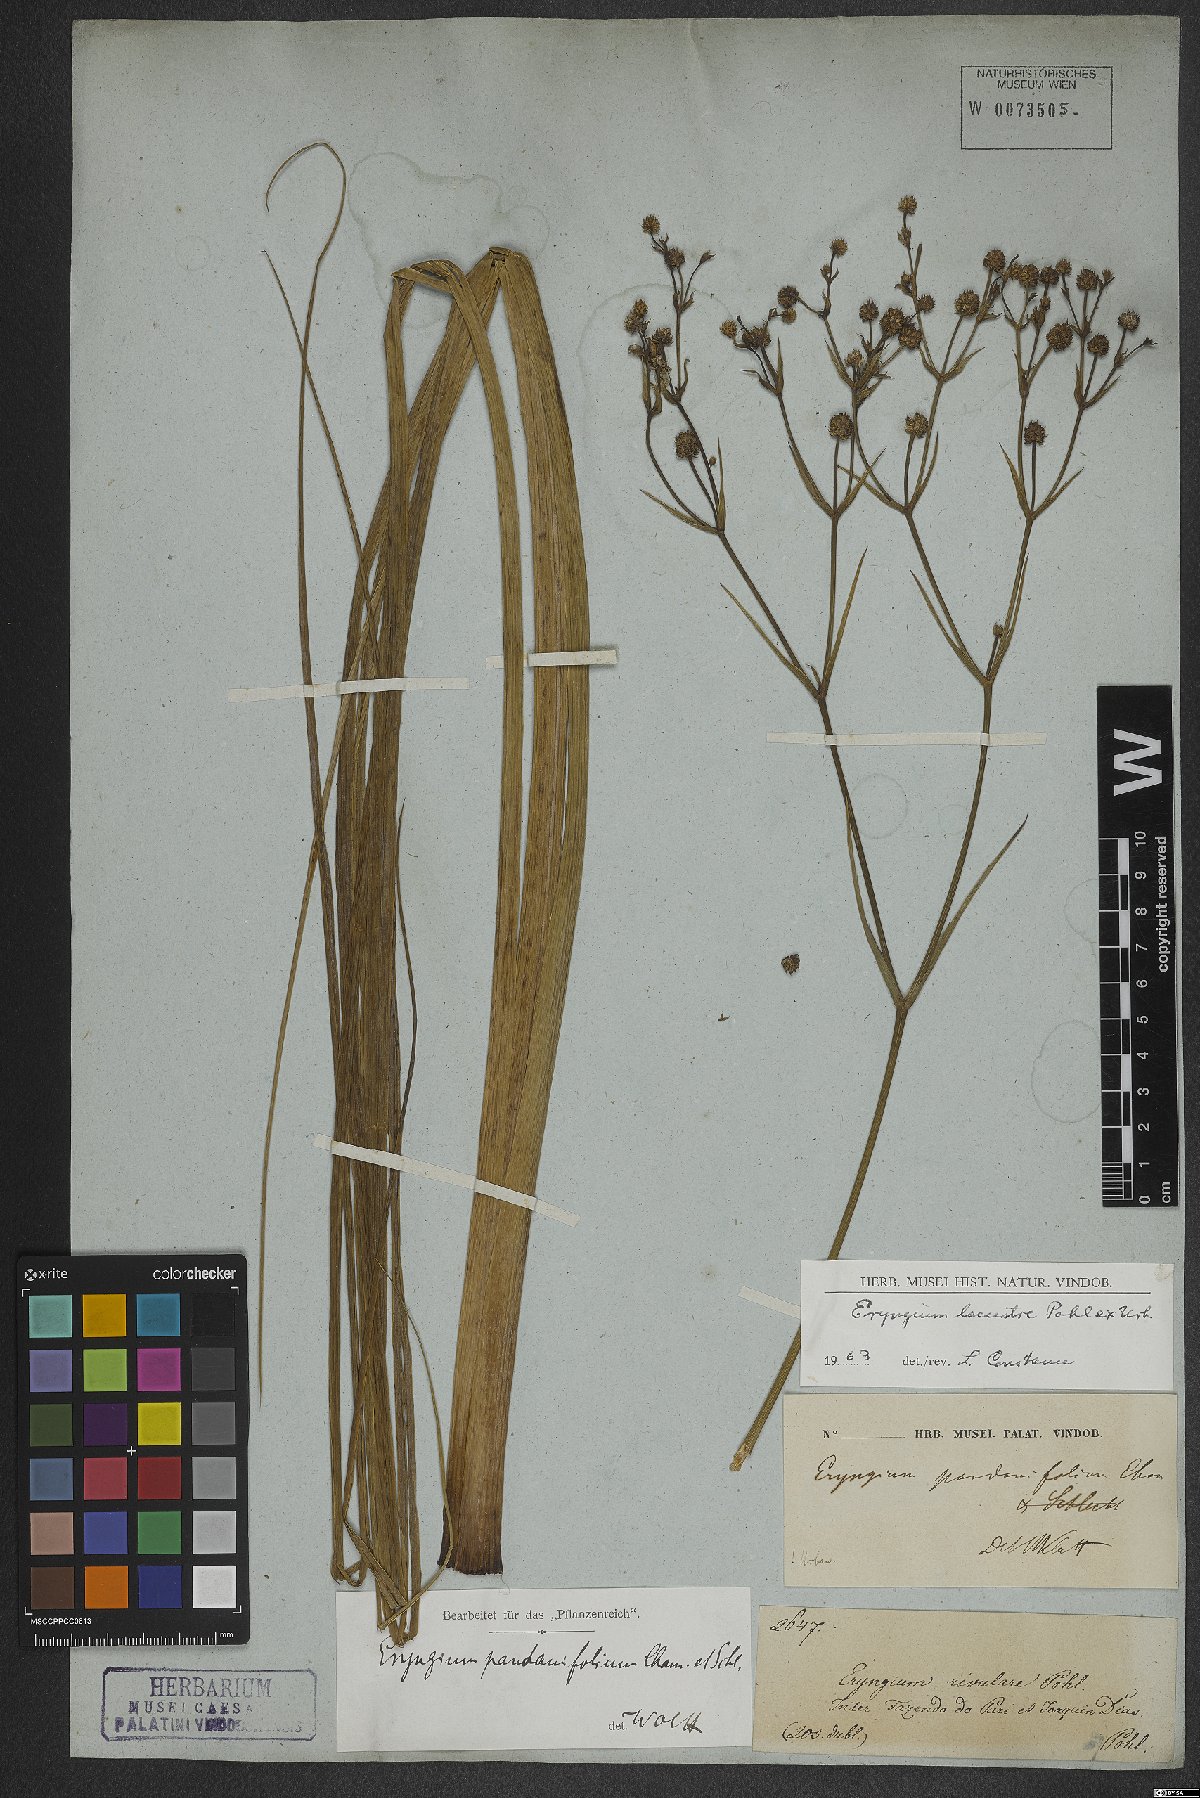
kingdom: Plantae
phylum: Tracheophyta
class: Magnoliopsida
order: Apiales
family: Apiaceae
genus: Eryngium
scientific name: Eryngium lacustre
